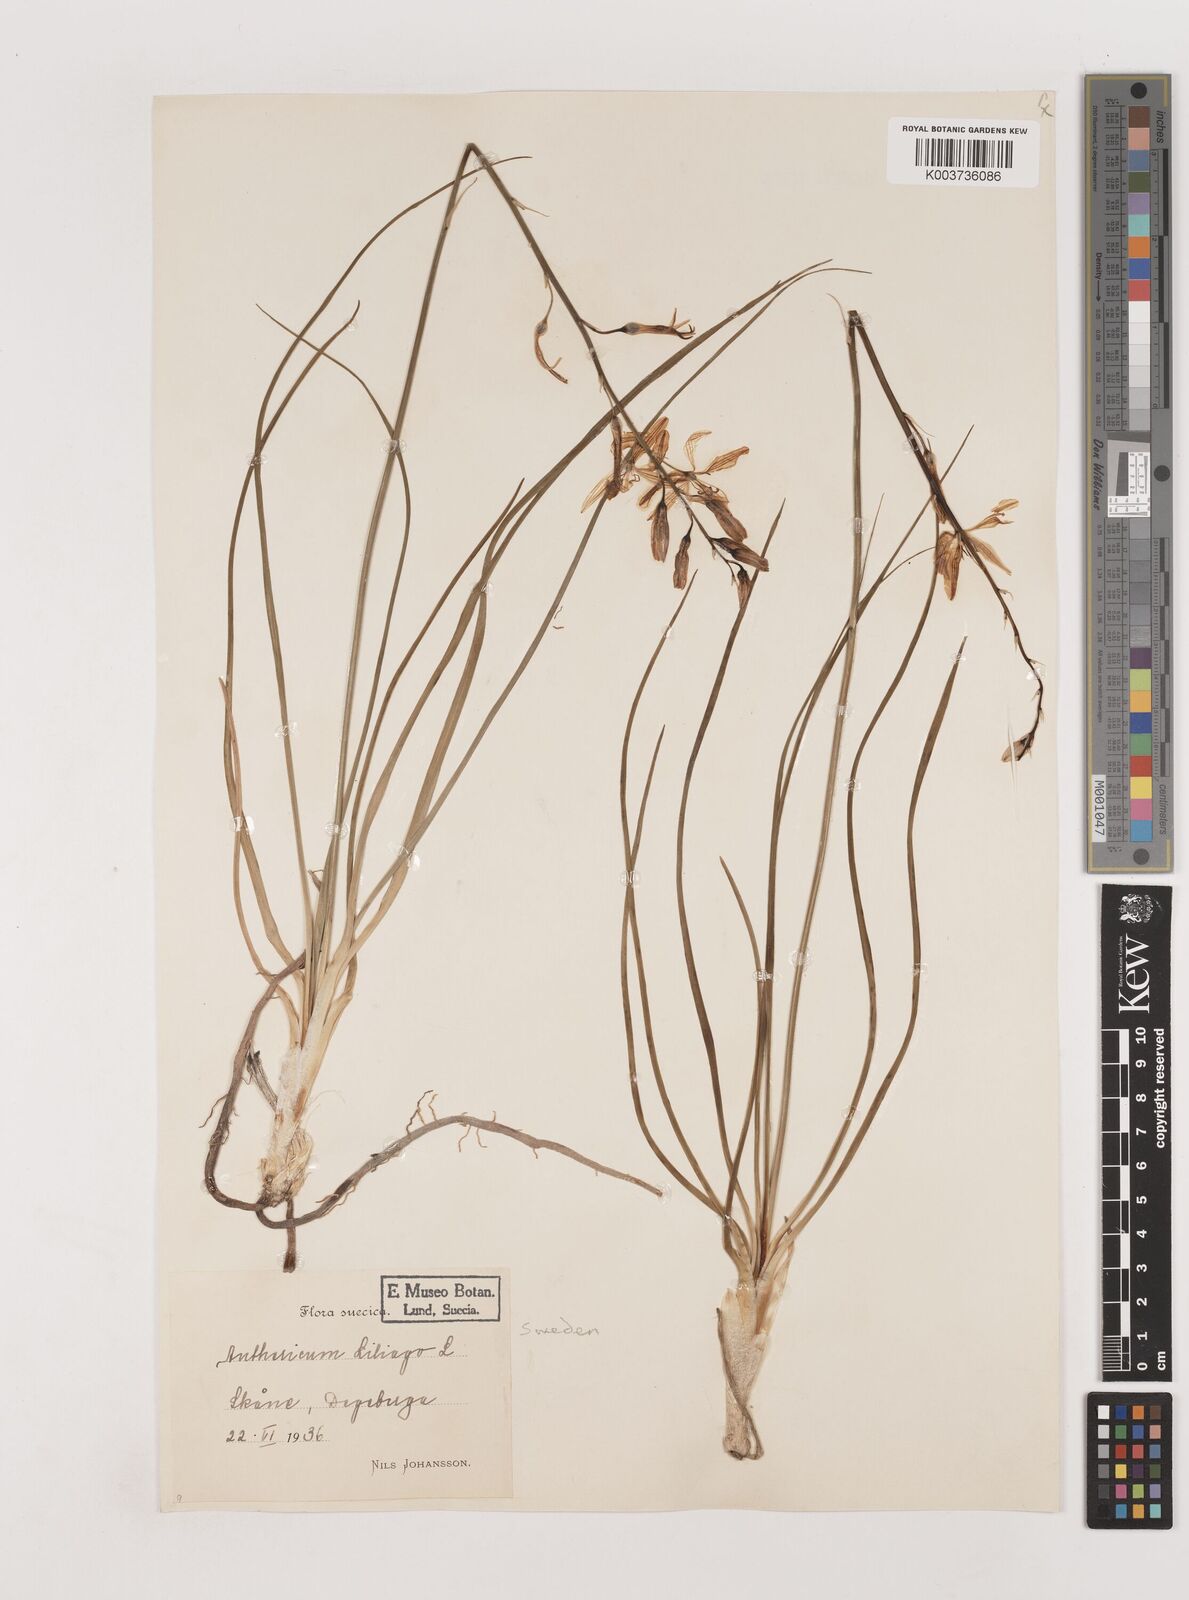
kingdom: Plantae
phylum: Tracheophyta
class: Liliopsida
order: Asparagales
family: Asparagaceae
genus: Anthericum
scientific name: Anthericum liliago
